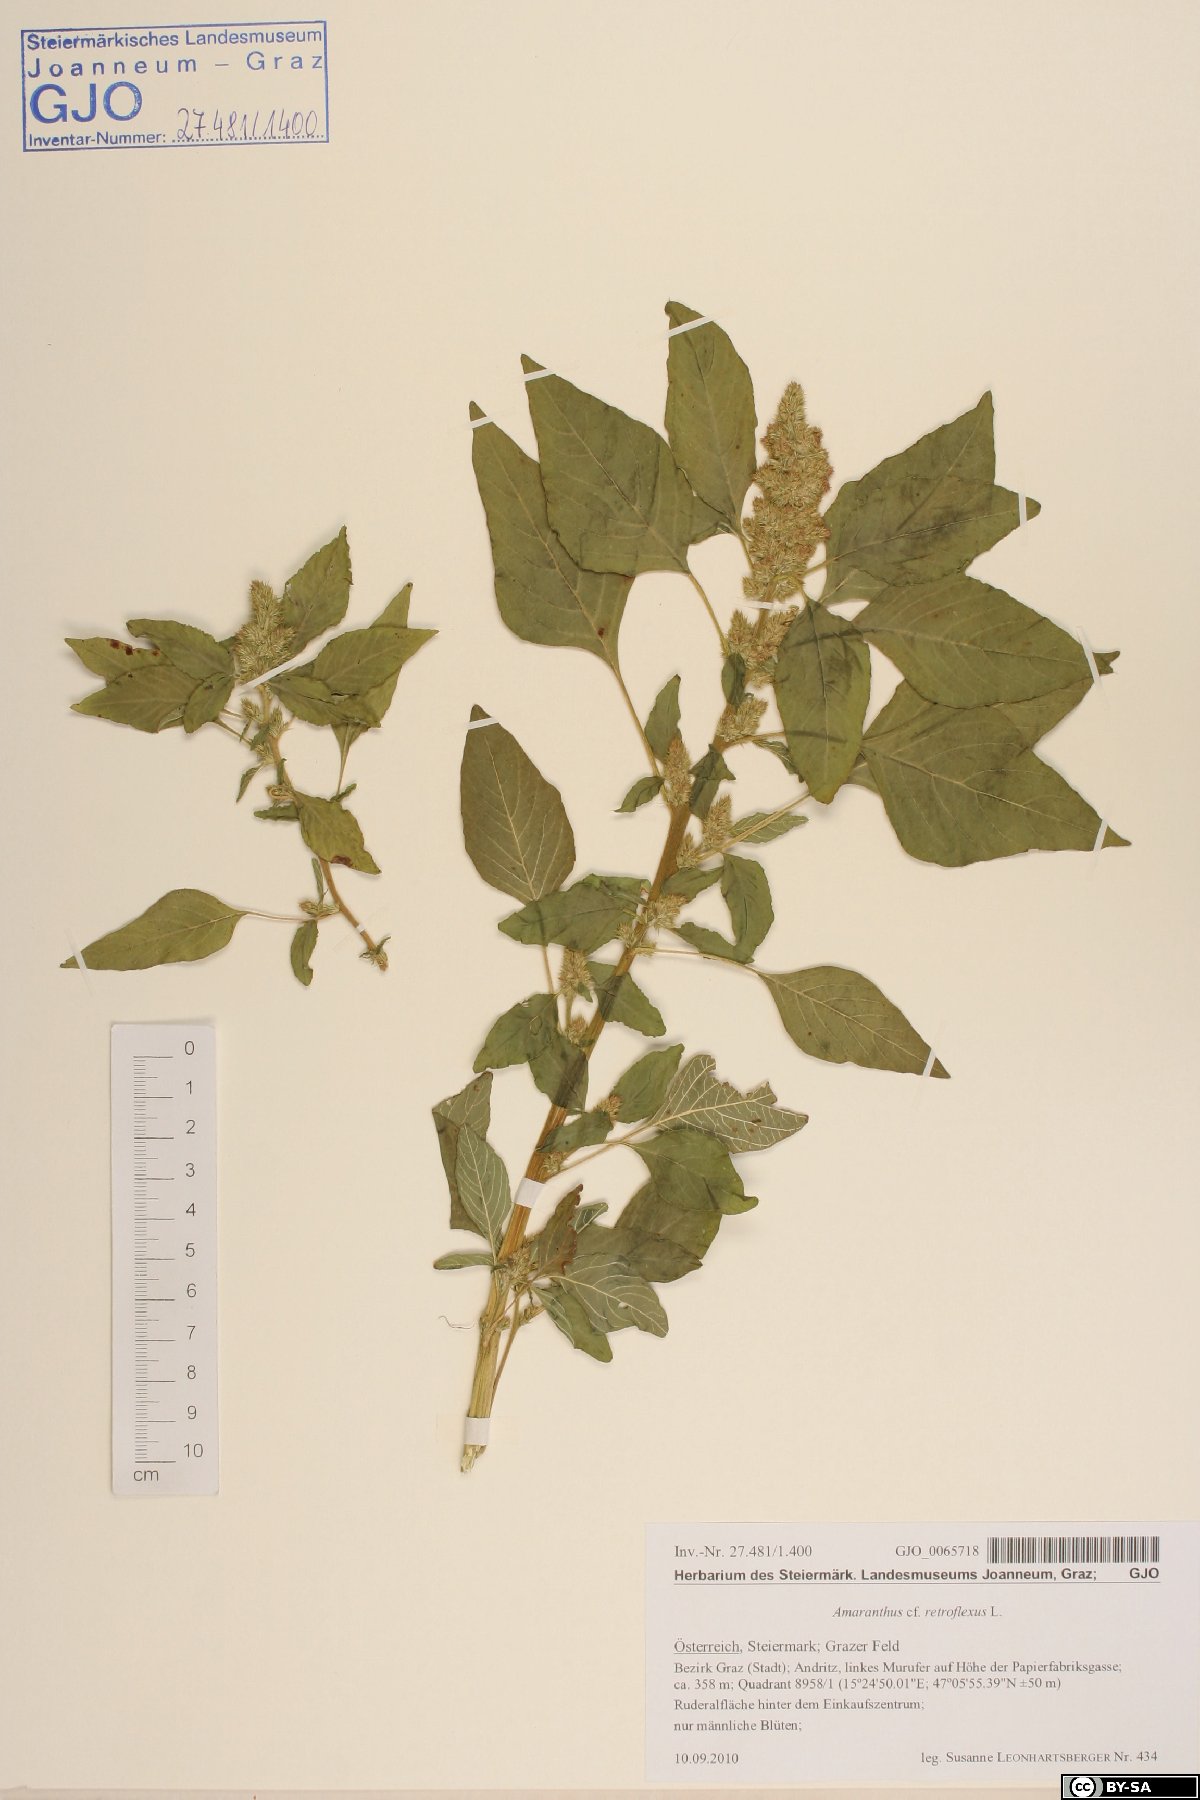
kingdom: Plantae
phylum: Tracheophyta
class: Magnoliopsida
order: Caryophyllales
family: Amaranthaceae
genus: Amaranthus
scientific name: Amaranthus retroflexus
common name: Redroot amaranth
